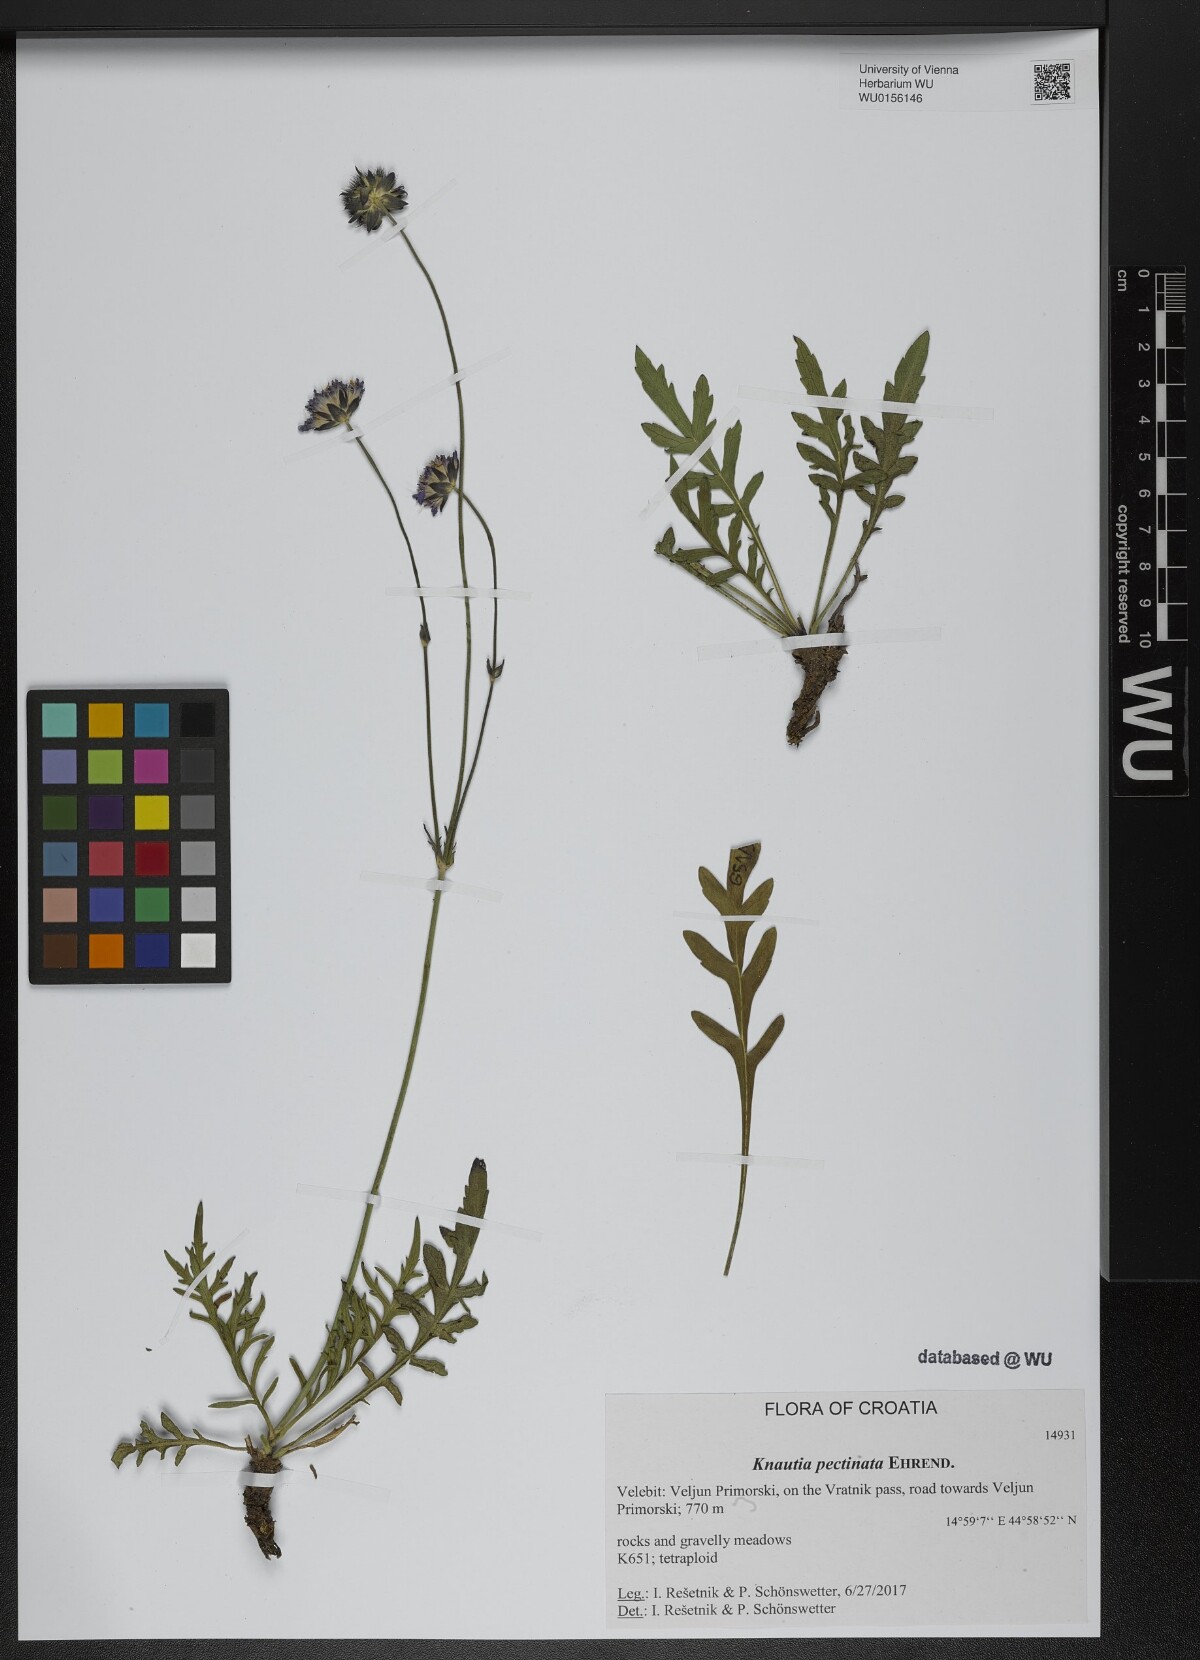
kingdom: Plantae
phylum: Tracheophyta
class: Magnoliopsida
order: Dipsacales
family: Caprifoliaceae
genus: Knautia
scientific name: Knautia pectinata
